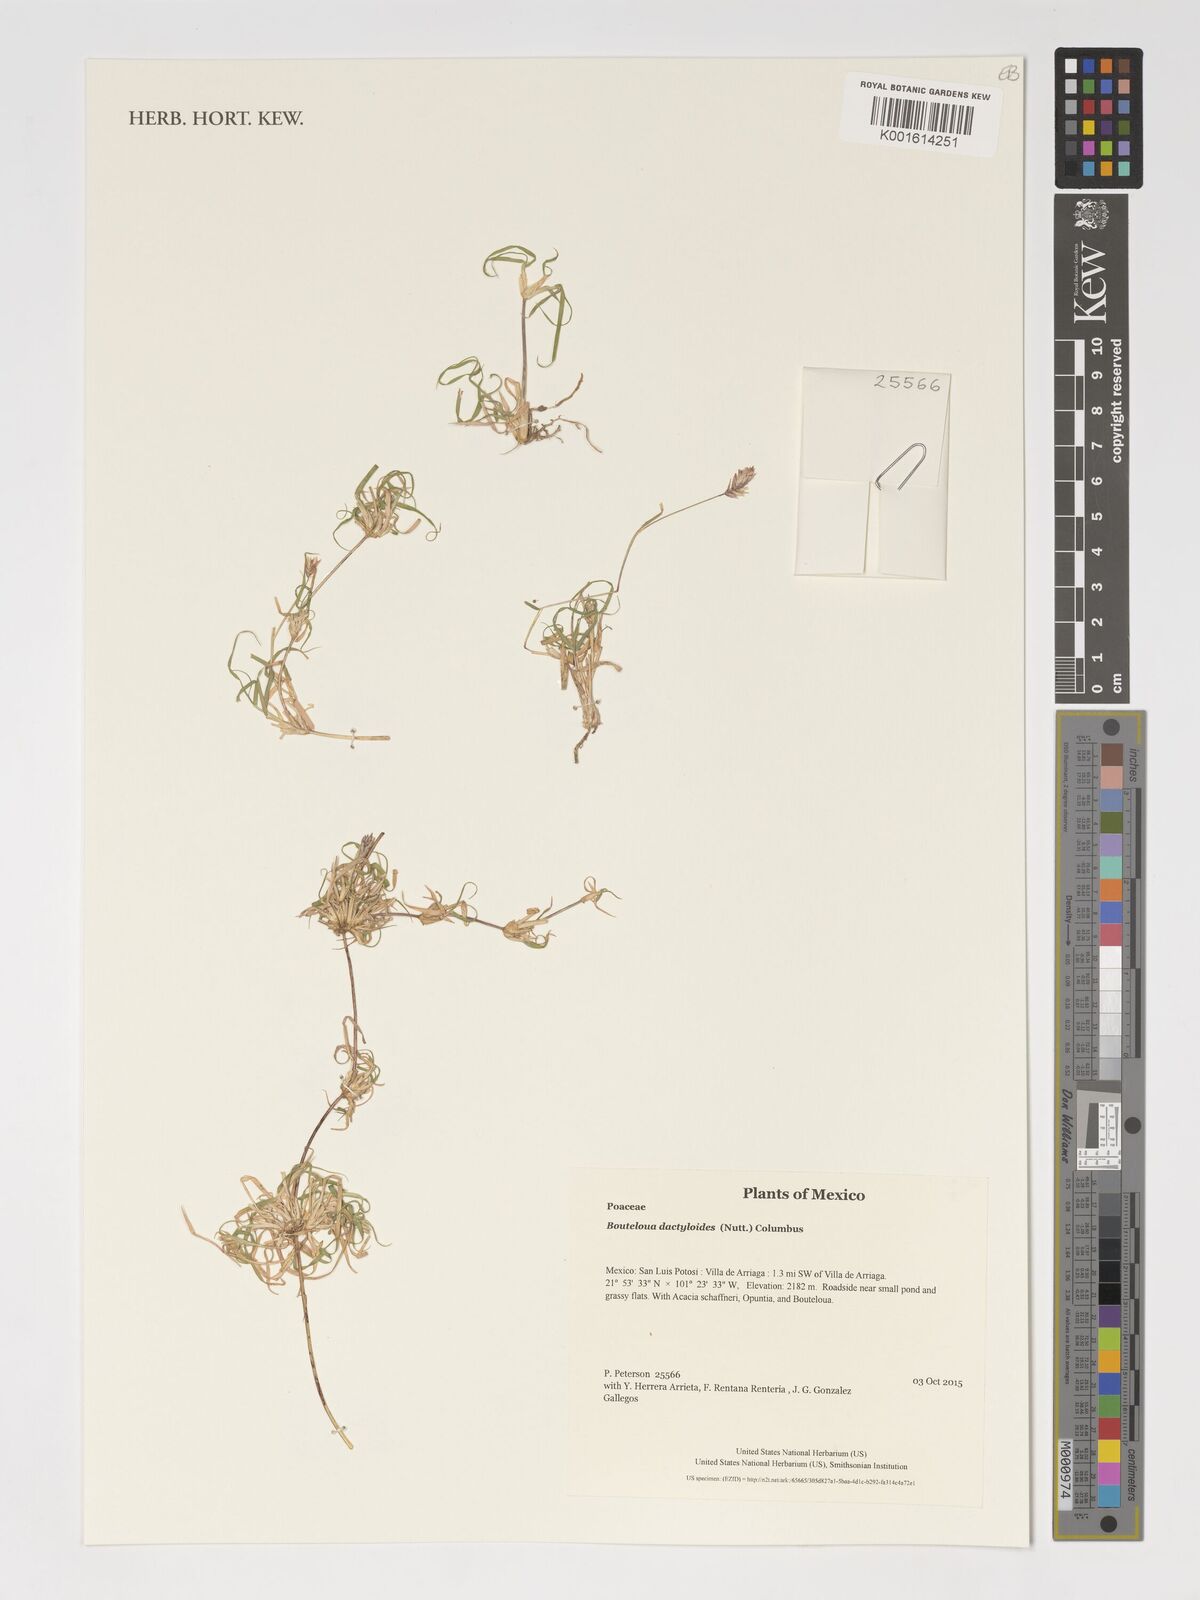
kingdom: Plantae
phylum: Tracheophyta
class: Liliopsida
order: Poales
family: Poaceae
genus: Bouteloua
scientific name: Bouteloua dactyloides
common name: Buffalo grass
